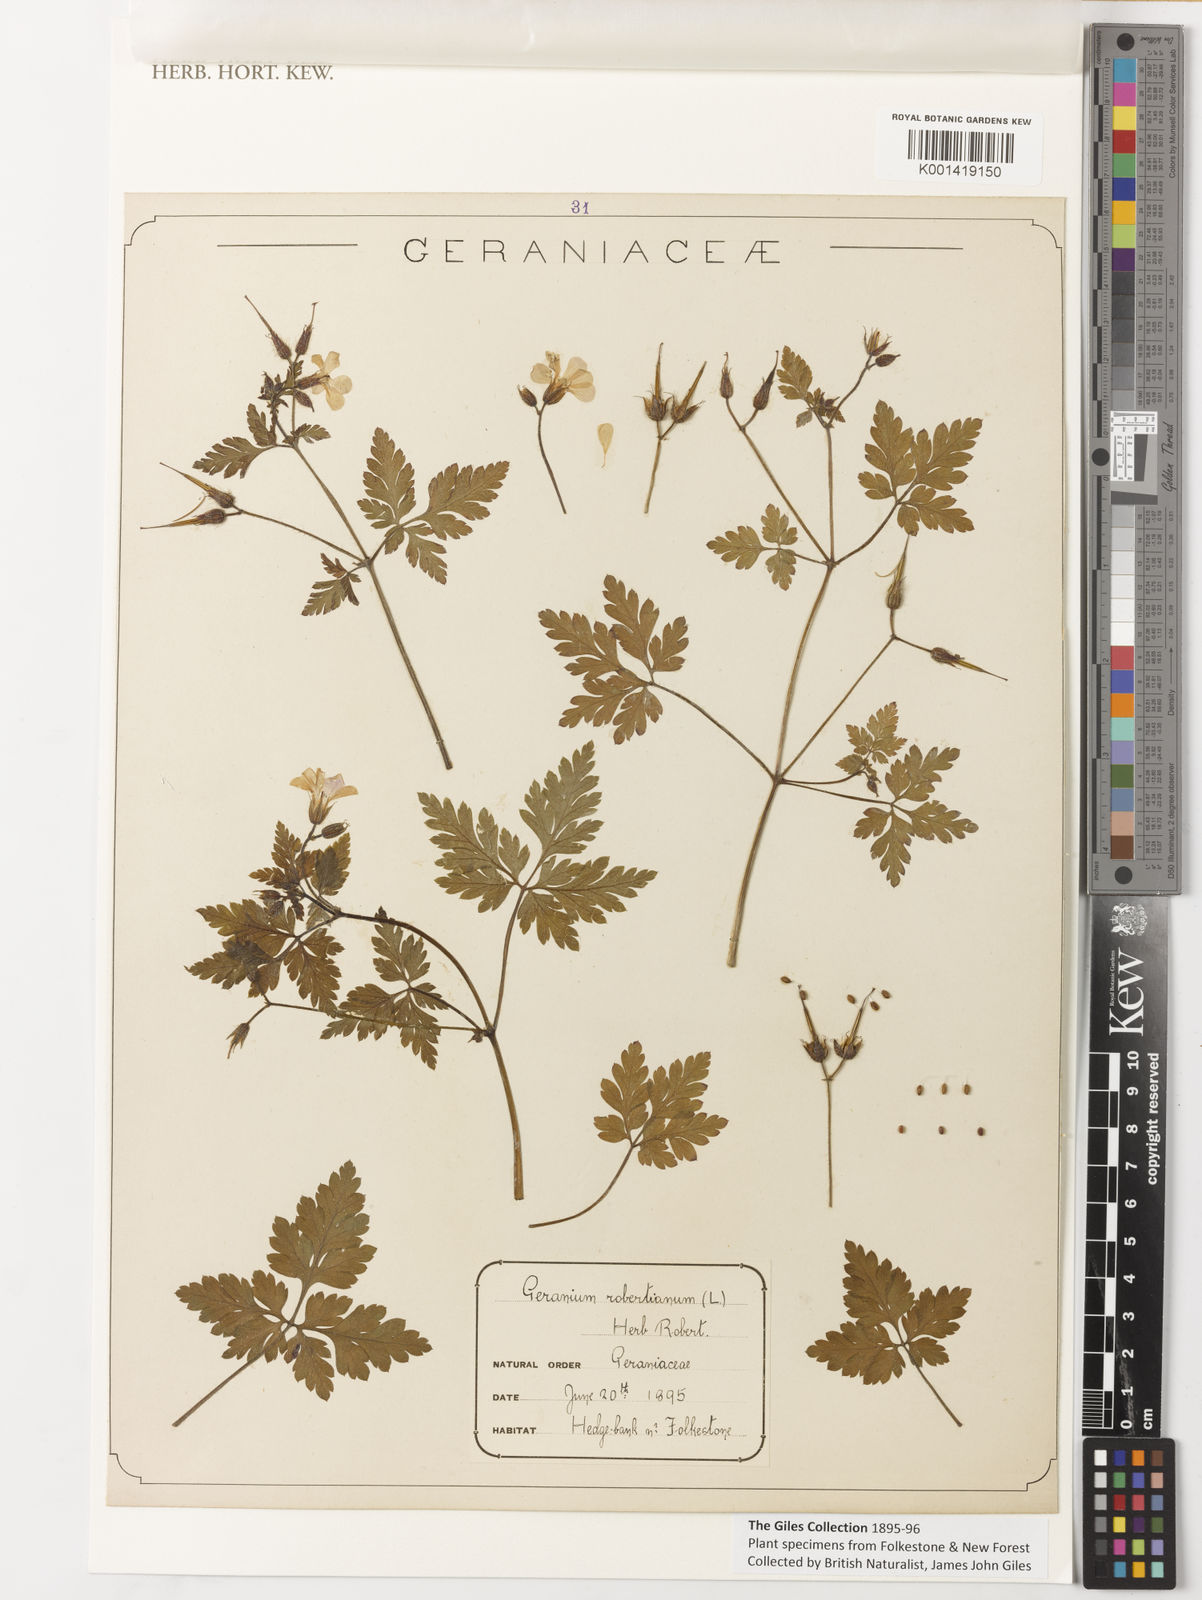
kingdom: Plantae
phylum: Tracheophyta
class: Magnoliopsida
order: Geraniales
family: Geraniaceae
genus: Geranium
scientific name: Geranium
